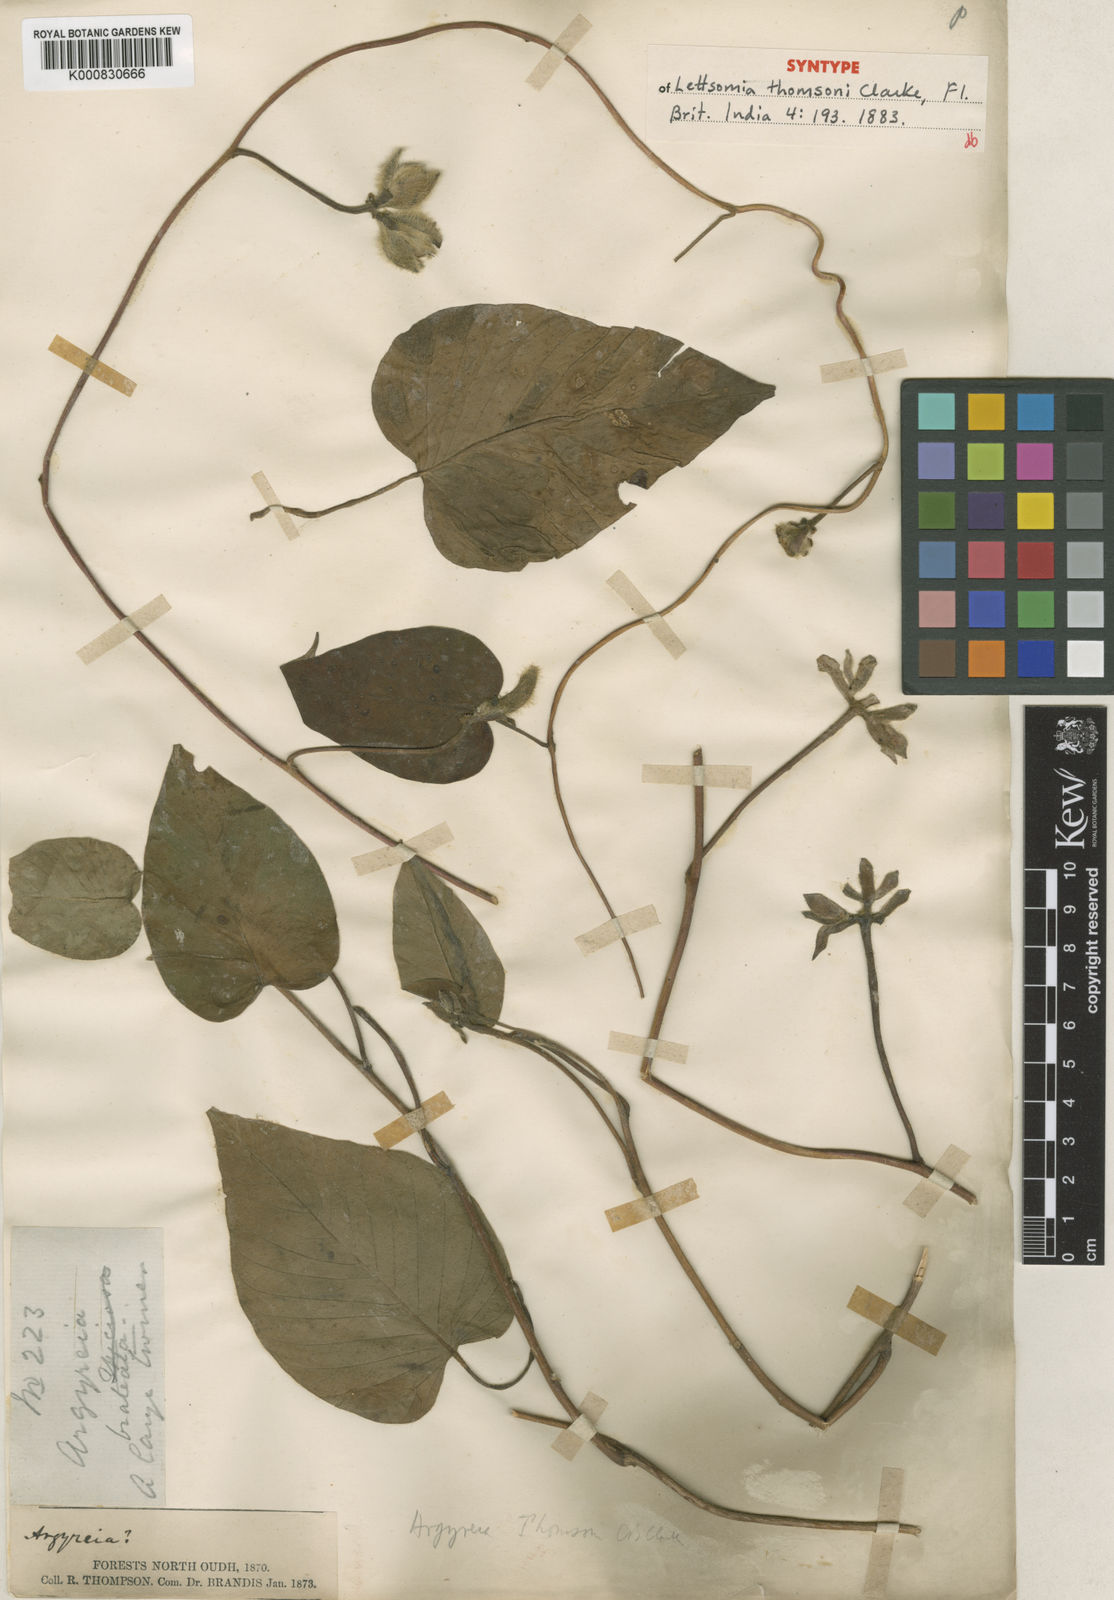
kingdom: Plantae
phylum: Tracheophyta
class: Magnoliopsida
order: Solanales
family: Convolvulaceae
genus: Argyreia
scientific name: Argyreia thomsonii
